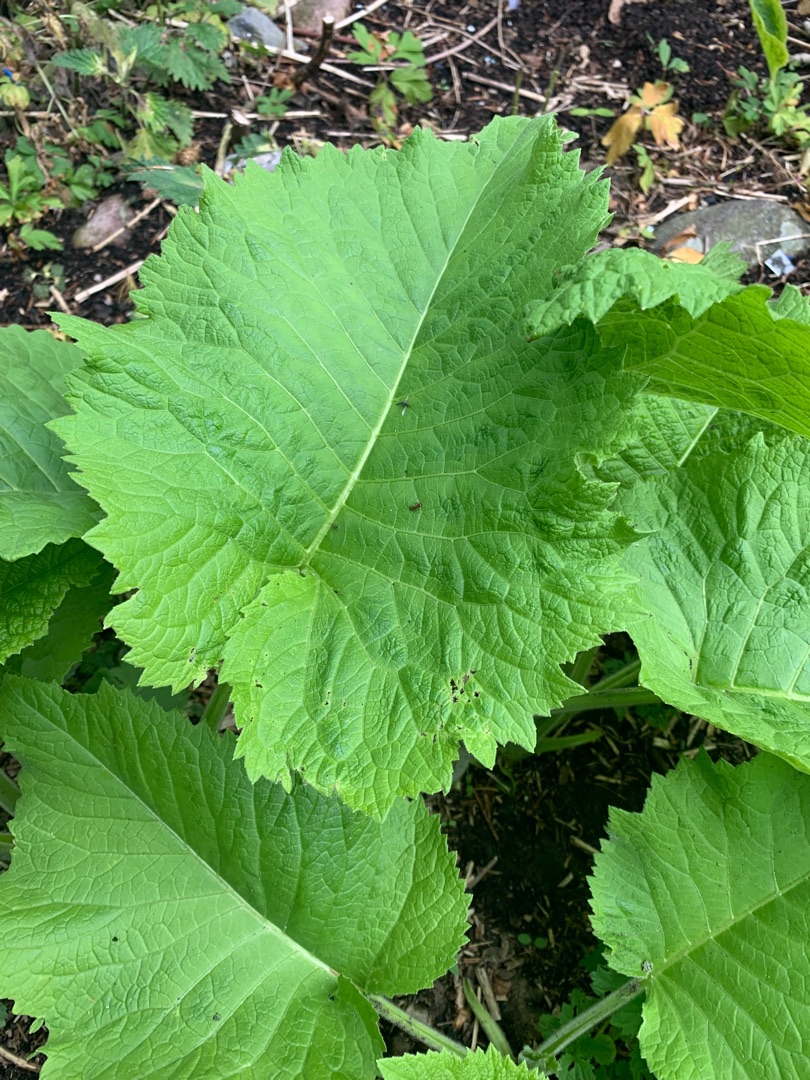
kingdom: Plantae
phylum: Tracheophyta
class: Magnoliopsida
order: Asterales
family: Asteraceae
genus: Telekia
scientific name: Telekia speciosa
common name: Tusindstråle
